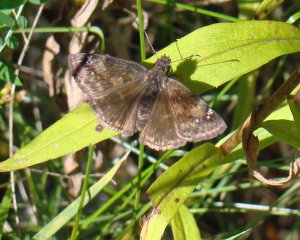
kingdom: Animalia
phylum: Arthropoda
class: Insecta
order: Lepidoptera
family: Hesperiidae
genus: Gesta
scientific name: Gesta
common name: Wild Indigo Duskywing
